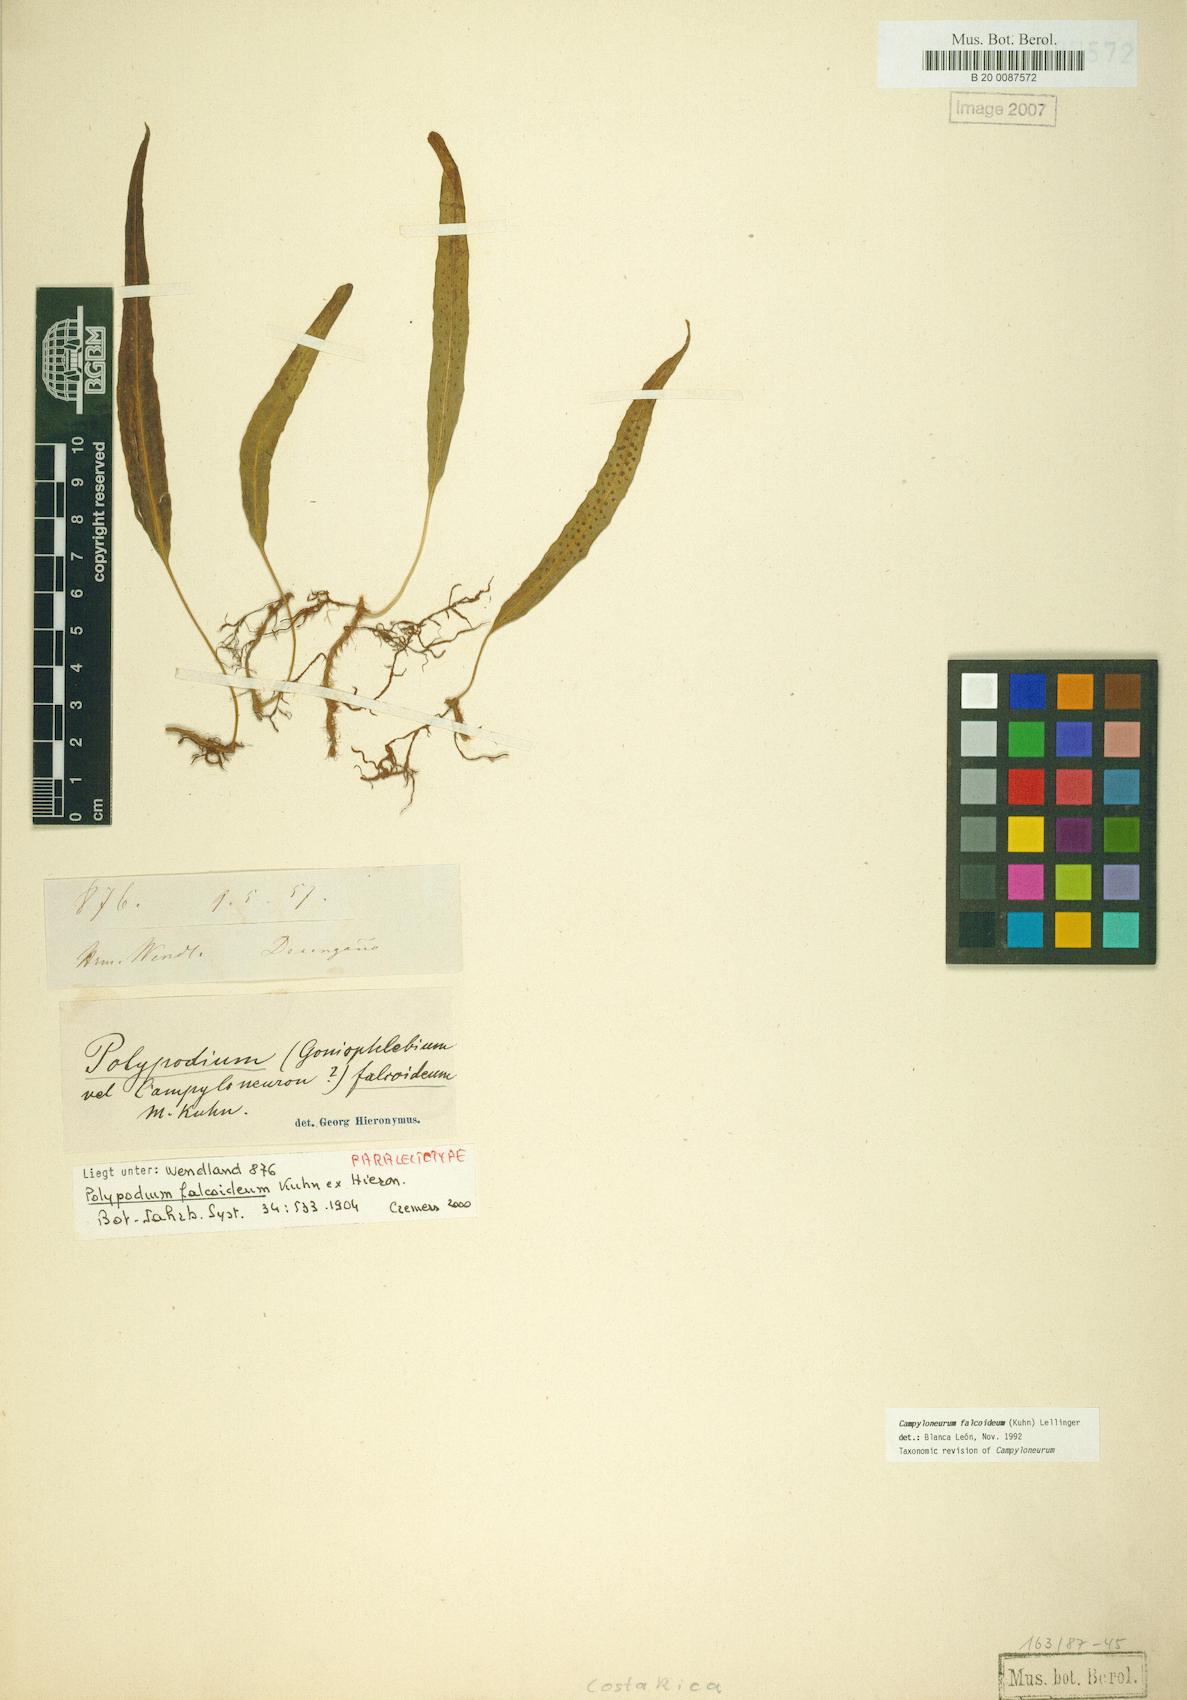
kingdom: Plantae
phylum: Tracheophyta
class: Polypodiopsida
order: Polypodiales
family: Polypodiaceae
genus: Campyloneurum
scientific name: Campyloneurum falcoideum
